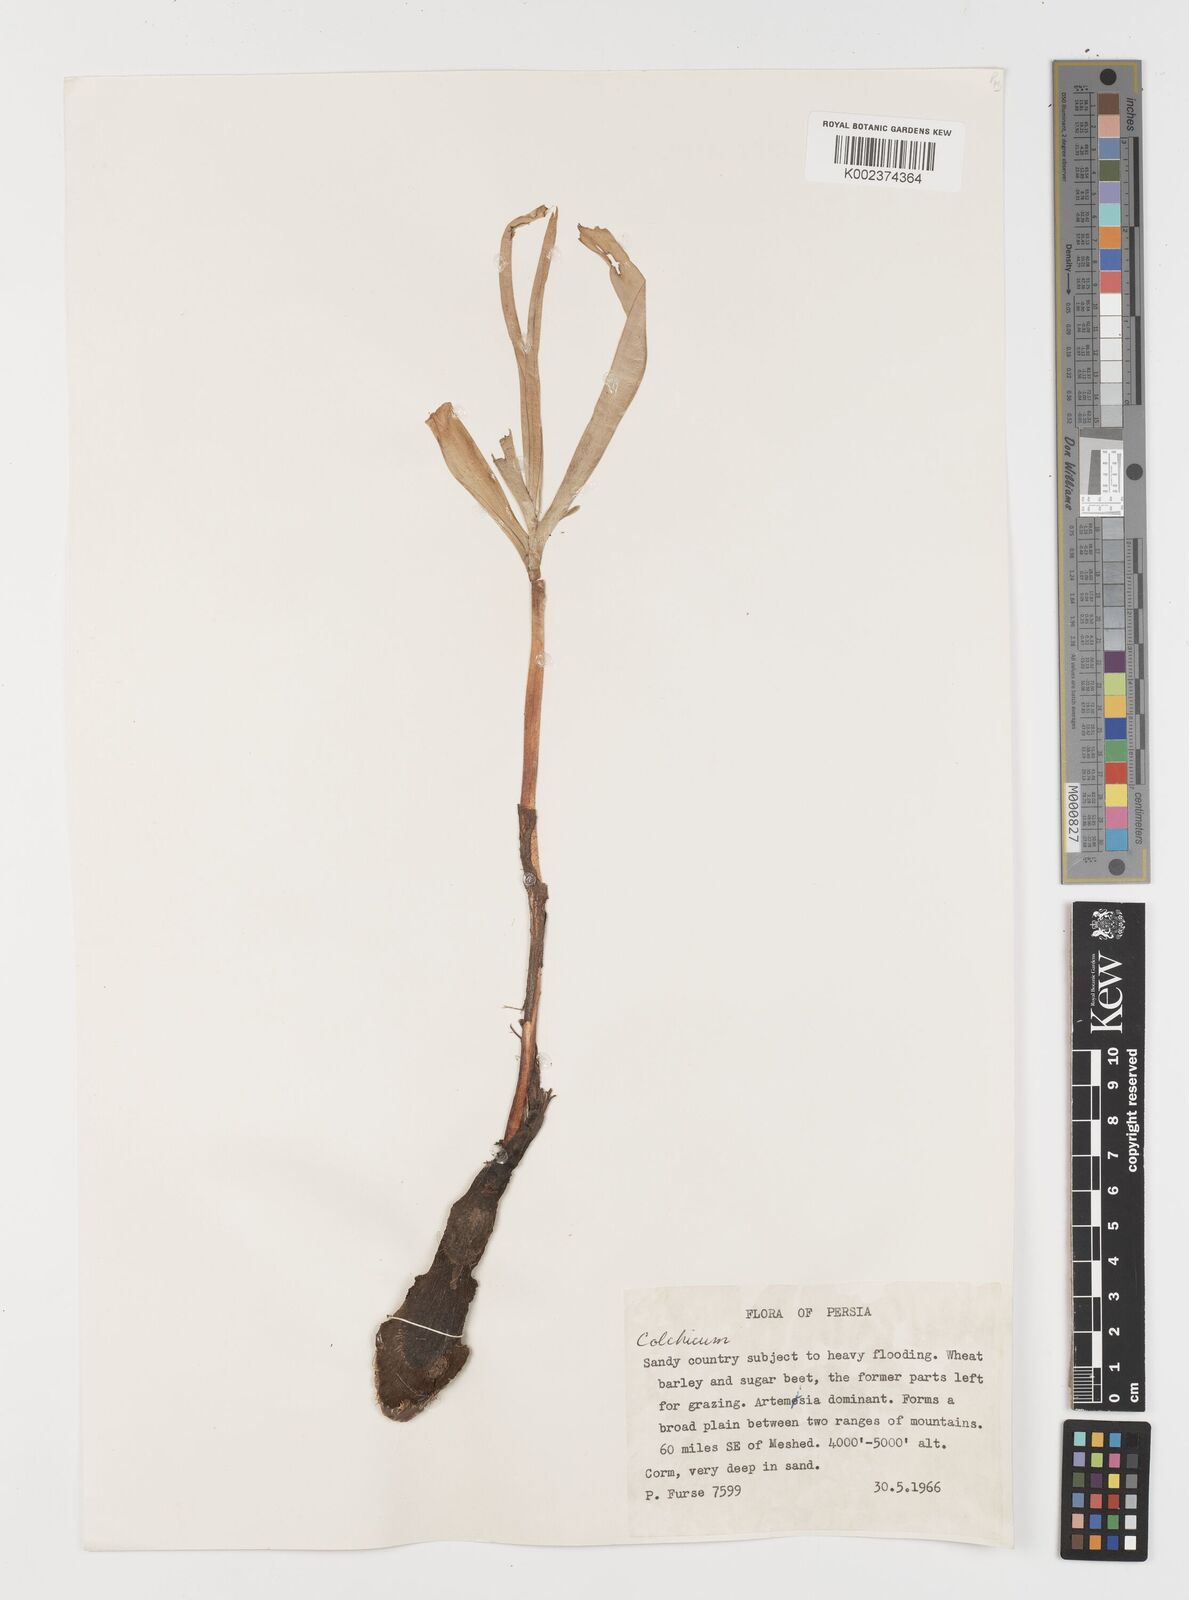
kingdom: Plantae
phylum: Tracheophyta
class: Liliopsida
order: Liliales
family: Colchicaceae
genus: Colchicum
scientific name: Colchicum
